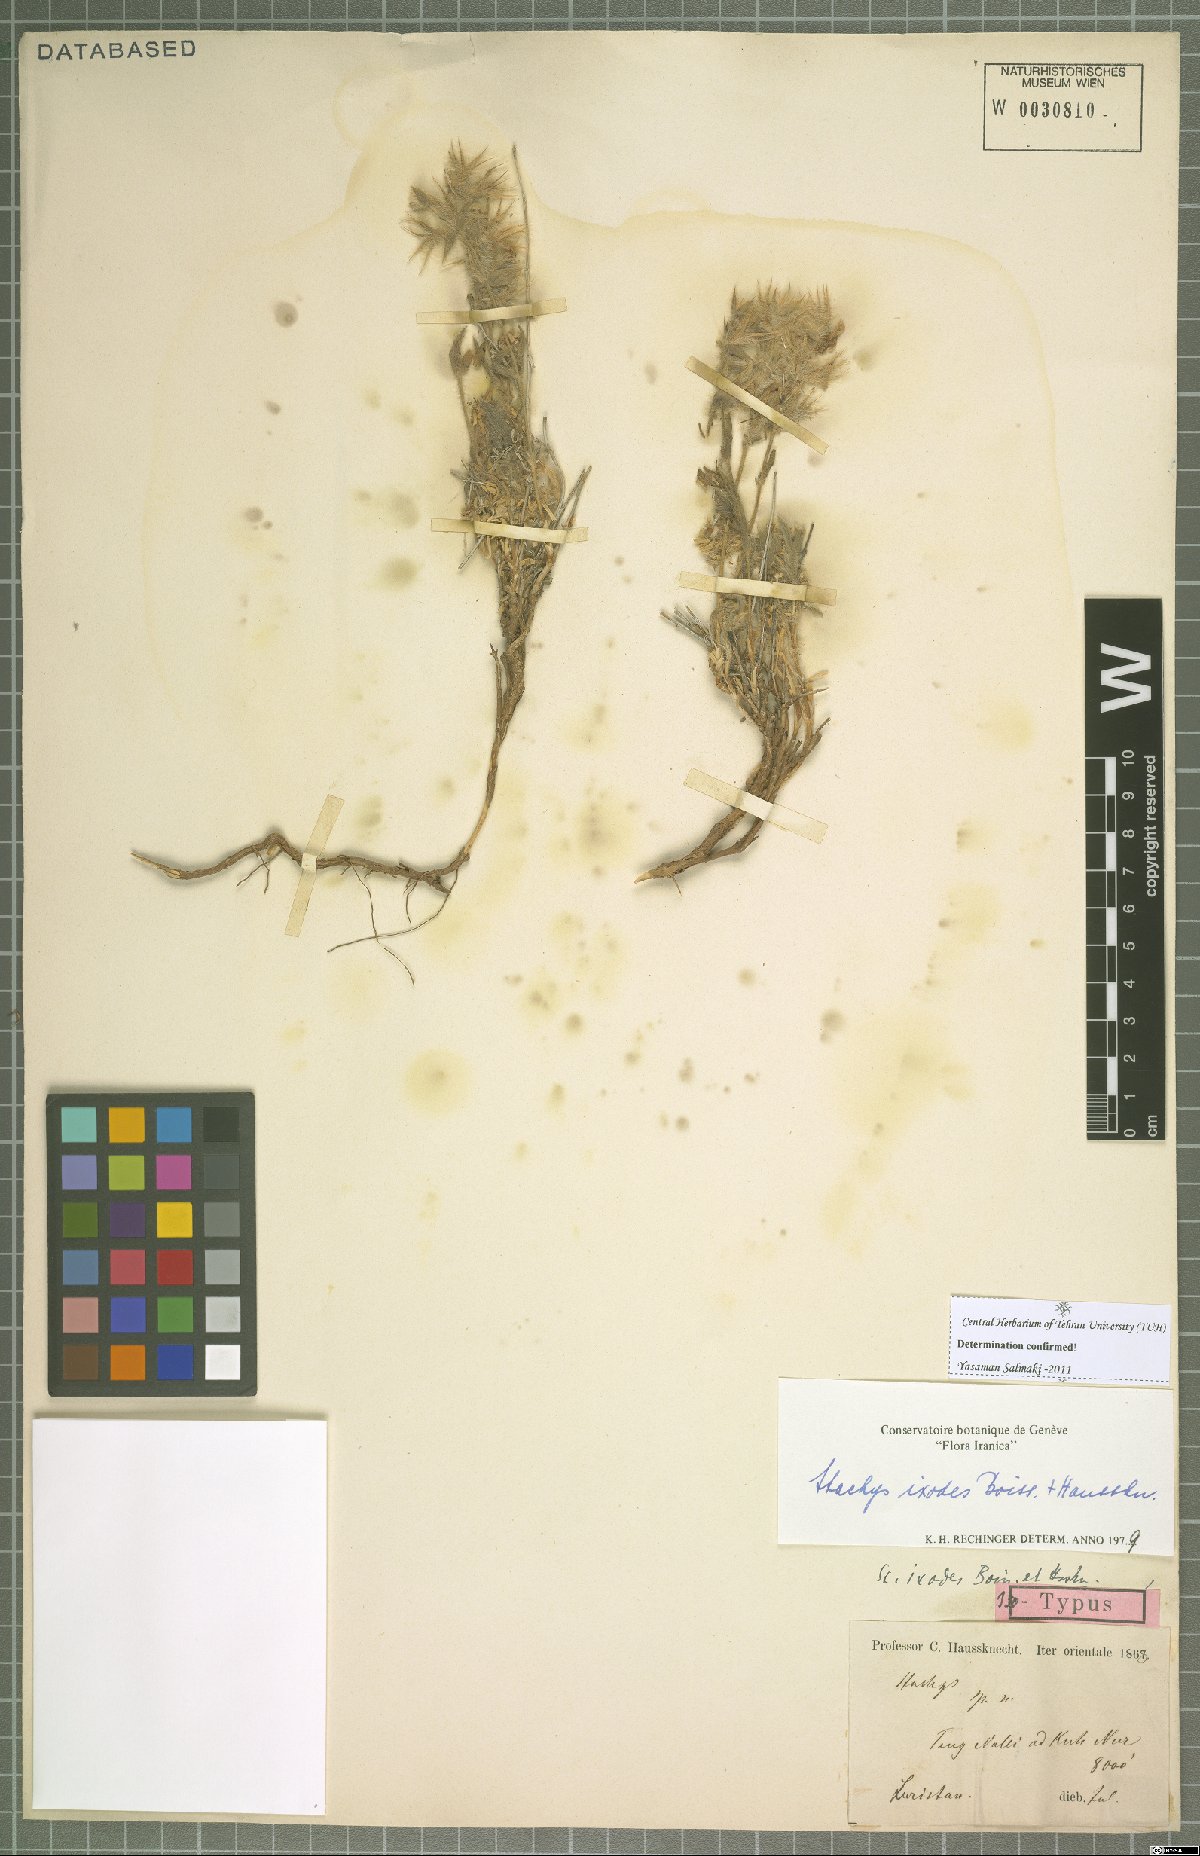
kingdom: Plantae
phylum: Tracheophyta
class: Magnoliopsida
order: Lamiales
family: Lamiaceae
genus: Stachys
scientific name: Stachys pilifera
